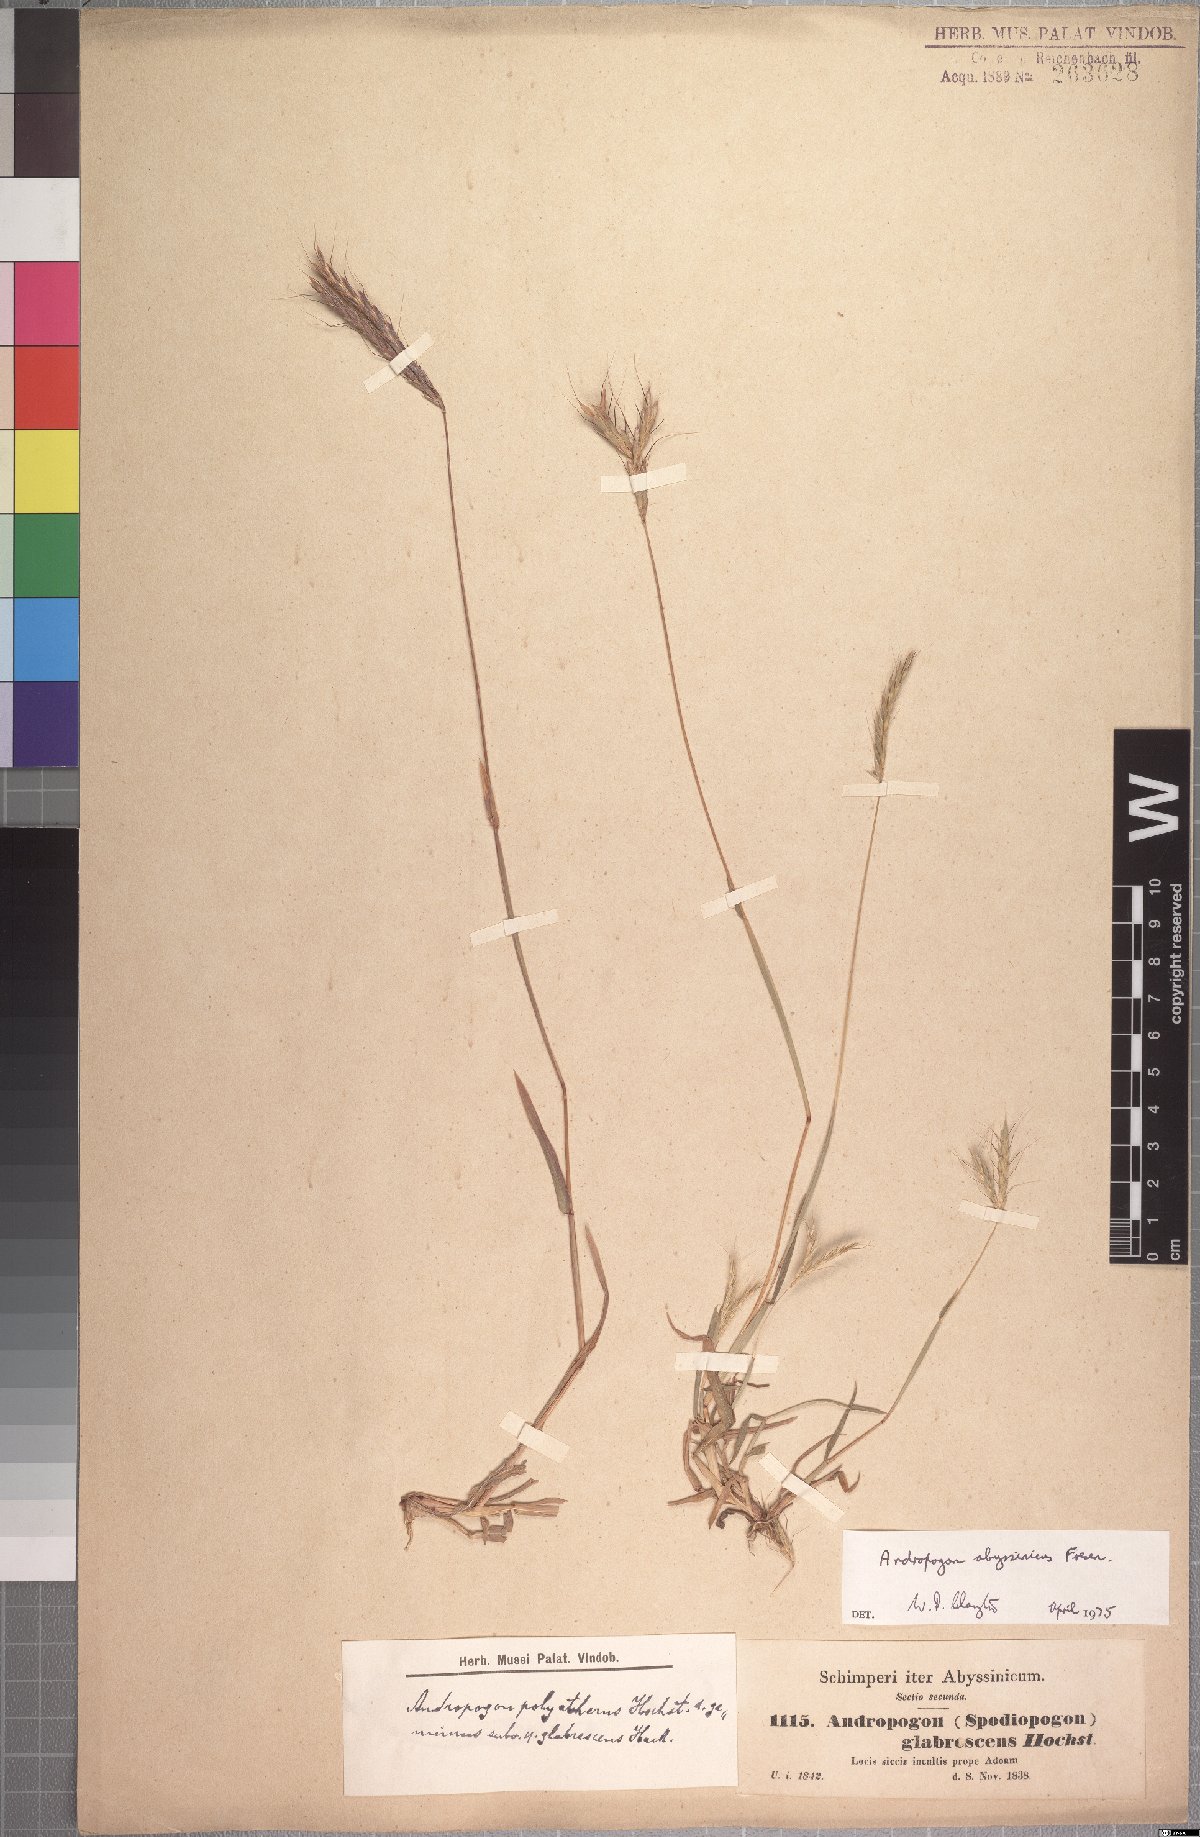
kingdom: Plantae
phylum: Tracheophyta
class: Liliopsida
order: Poales
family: Poaceae
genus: Andropogon
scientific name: Andropogon abyssinicus
